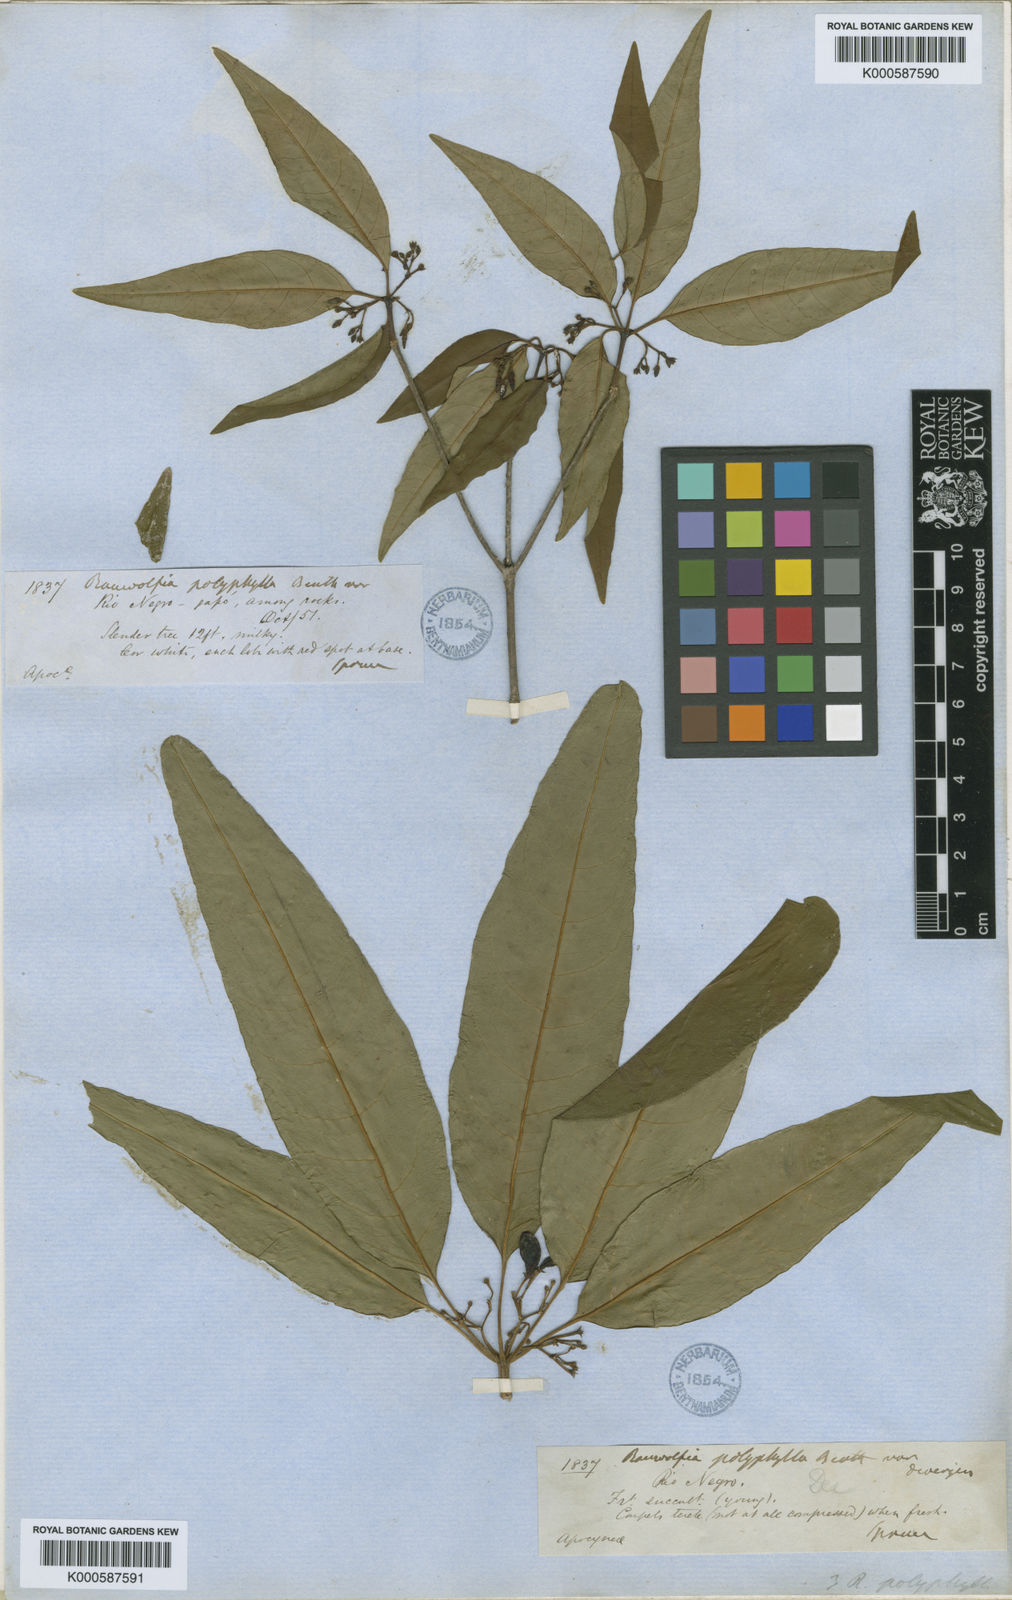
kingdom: Plantae
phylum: Tracheophyta
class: Magnoliopsida
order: Gentianales
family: Apocynaceae
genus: Rauvolfia
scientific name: Rauvolfia polyphylla
